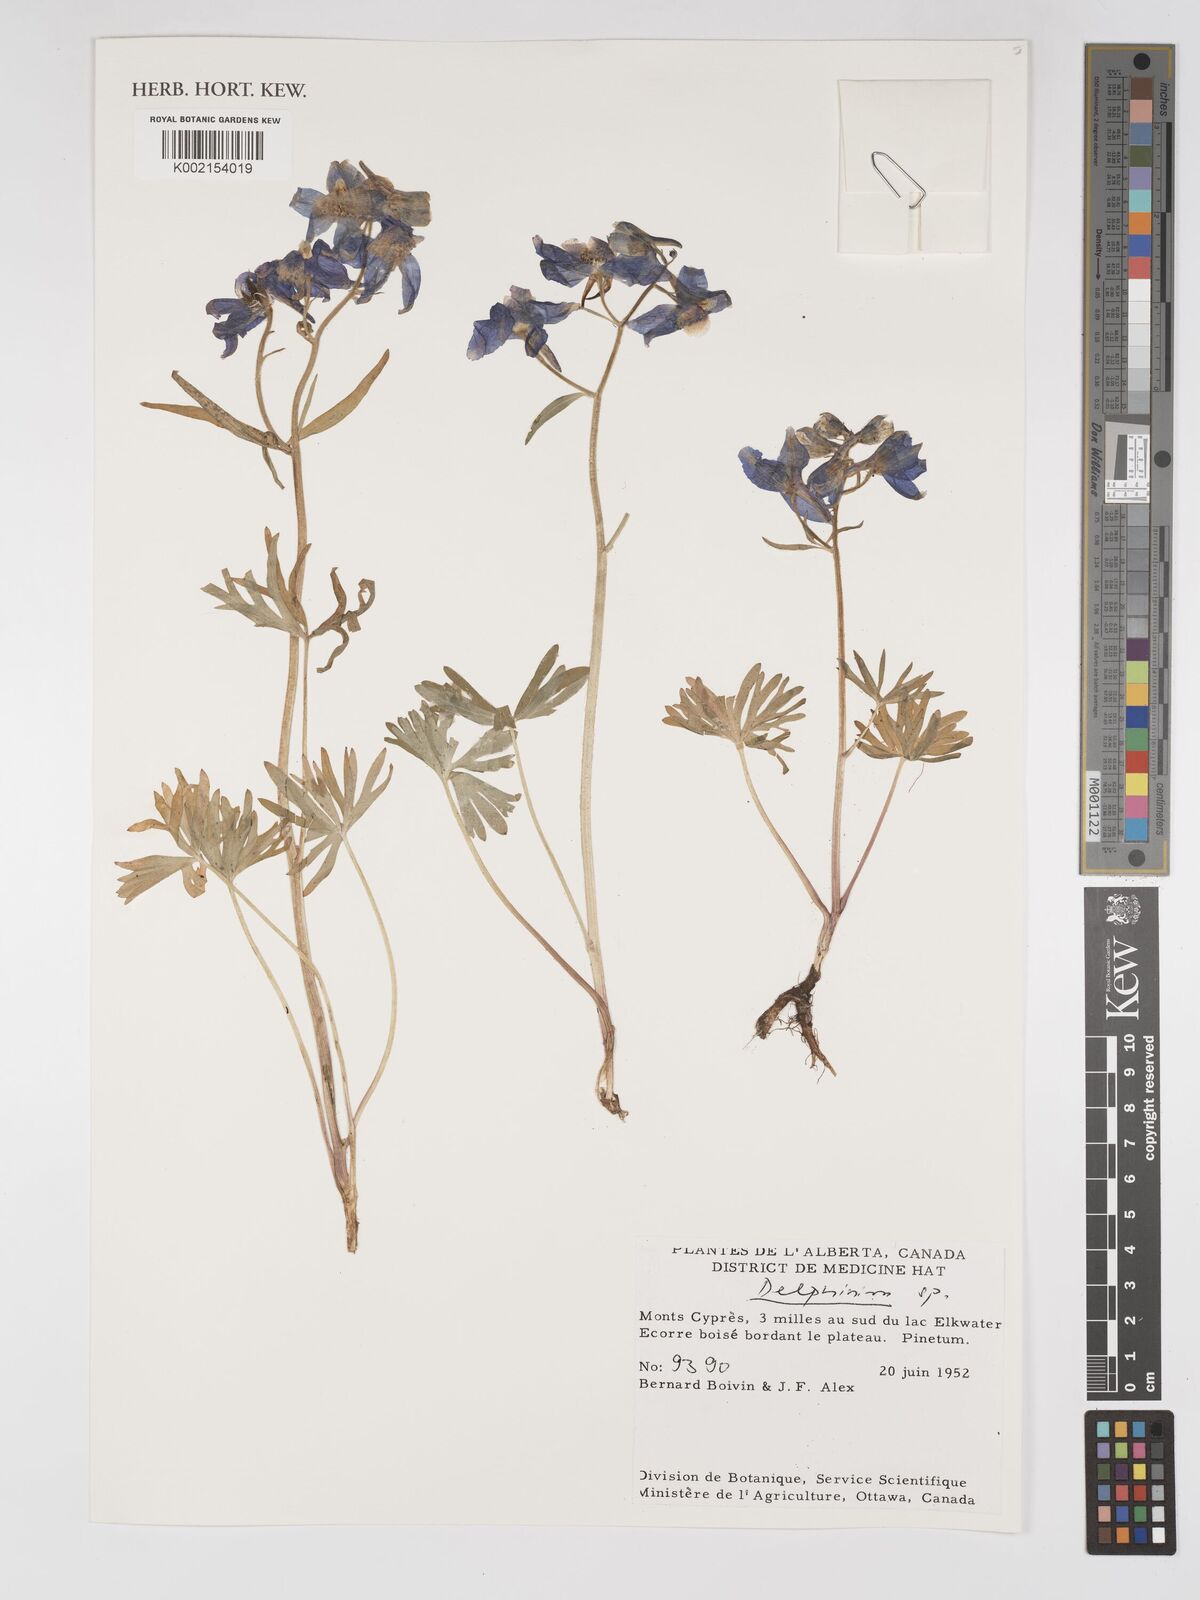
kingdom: Plantae
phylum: Tracheophyta
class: Magnoliopsida
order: Ranunculales
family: Ranunculaceae
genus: Delphinium
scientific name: Delphinium
